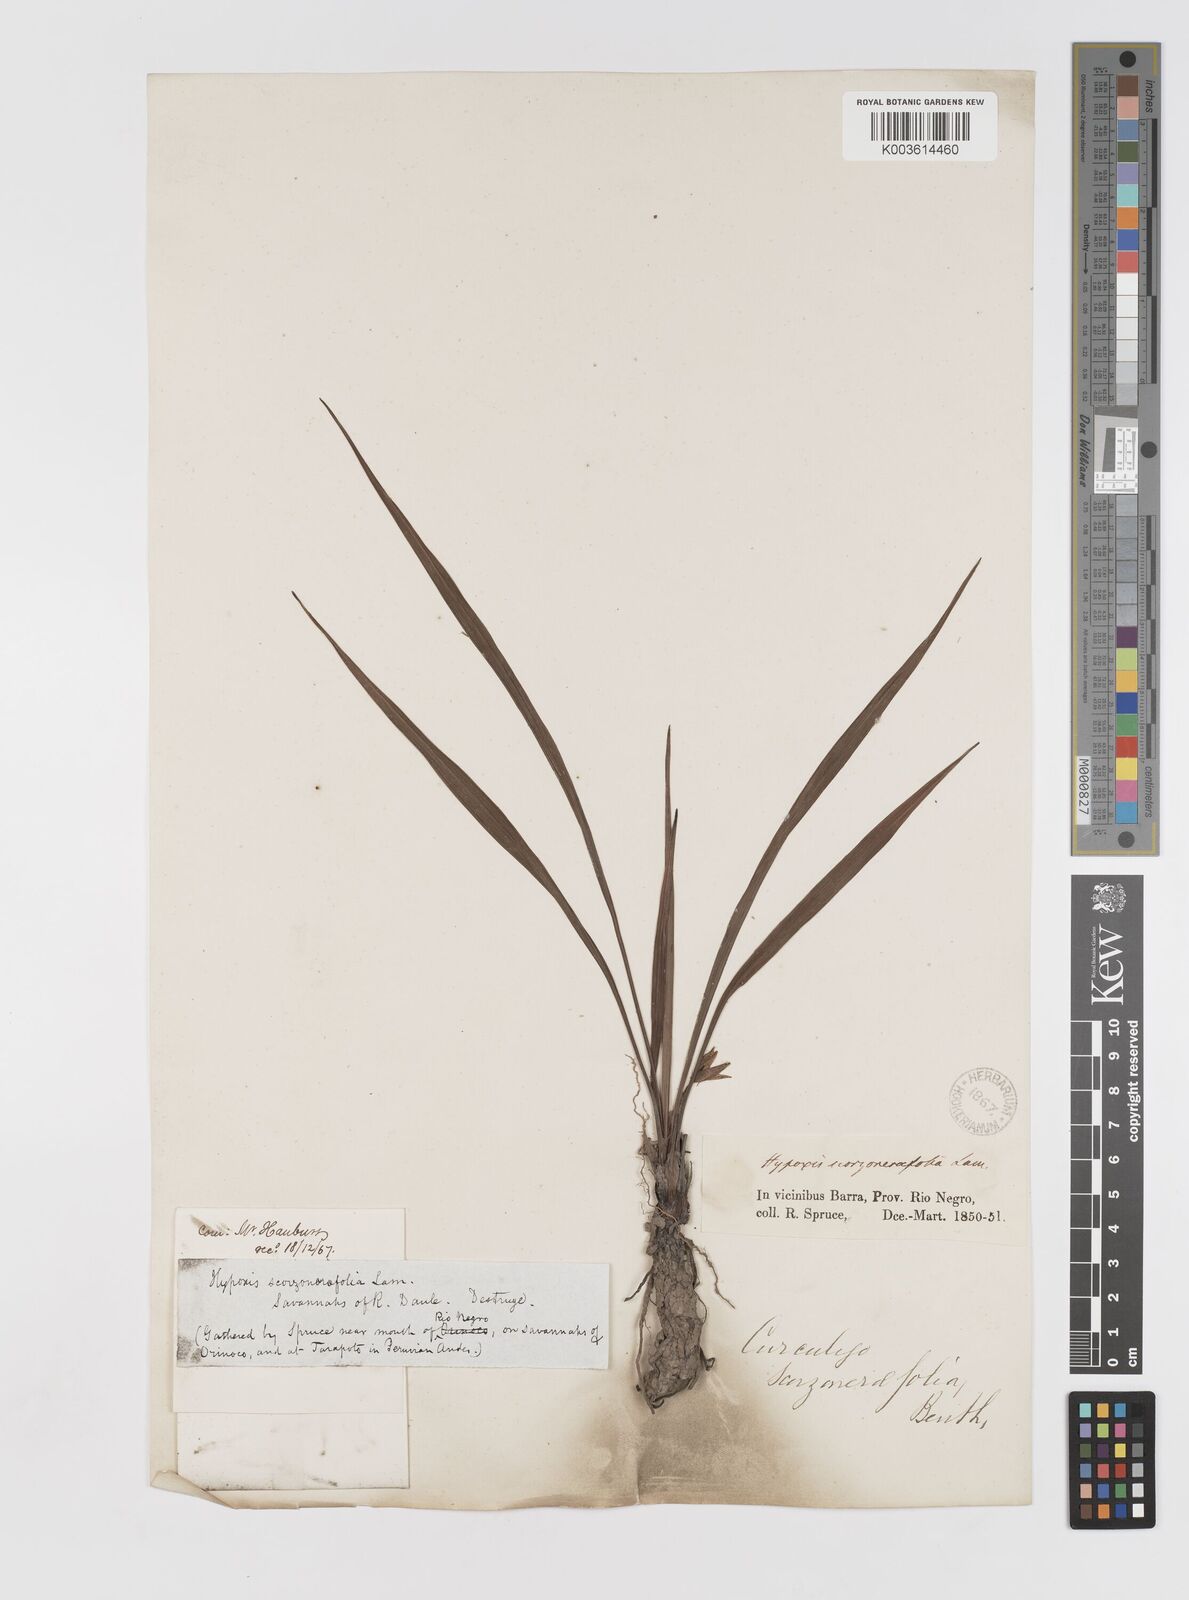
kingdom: Plantae
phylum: Tracheophyta
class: Liliopsida
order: Asparagales
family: Hypoxidaceae
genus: Curculigo
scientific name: Curculigo scorzonerifolia
